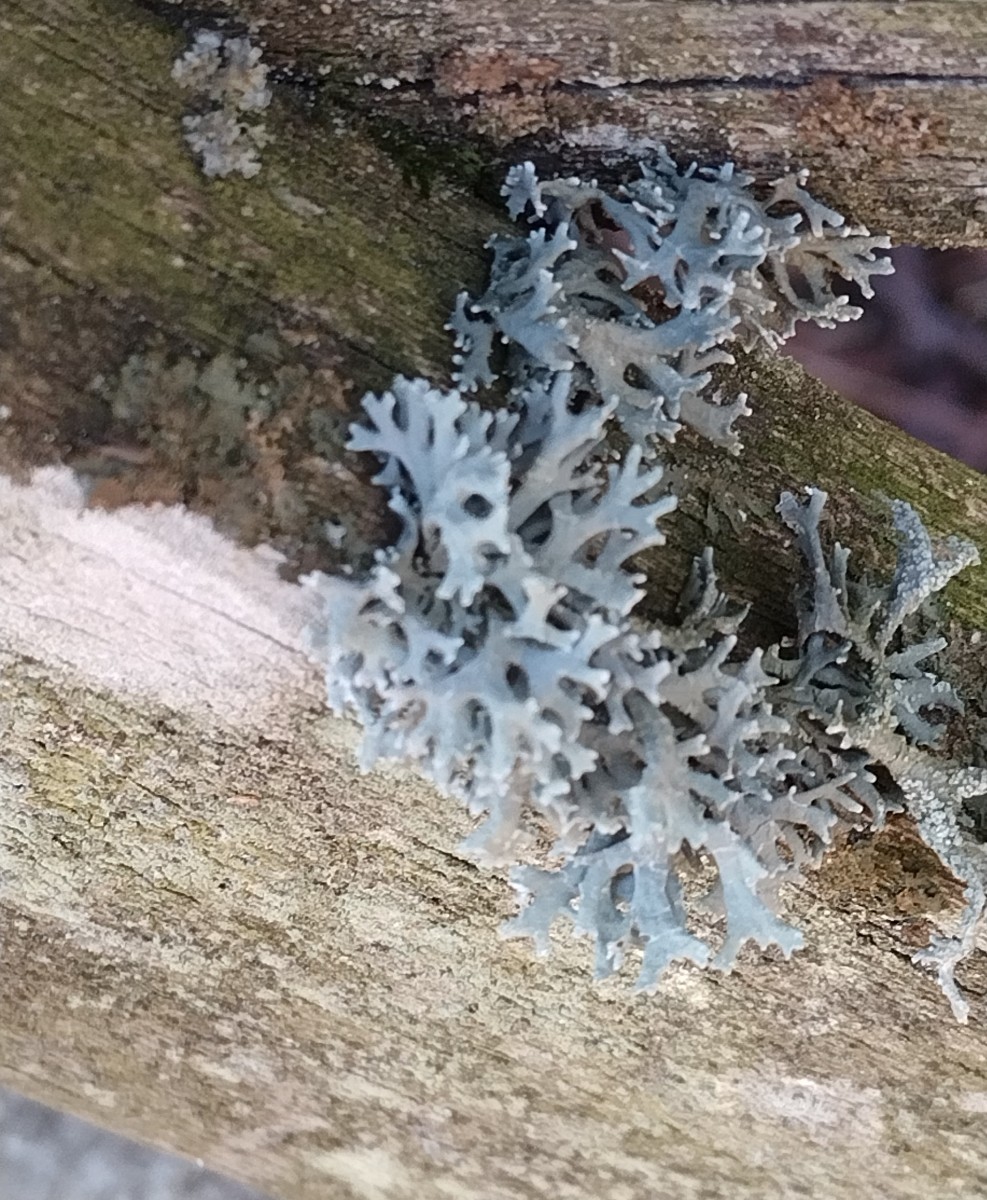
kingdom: Fungi
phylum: Ascomycota
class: Lecanoromycetes
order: Lecanorales
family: Parmeliaceae
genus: Hypogymnia
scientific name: Hypogymnia physodes
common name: almindelig kvistlav
